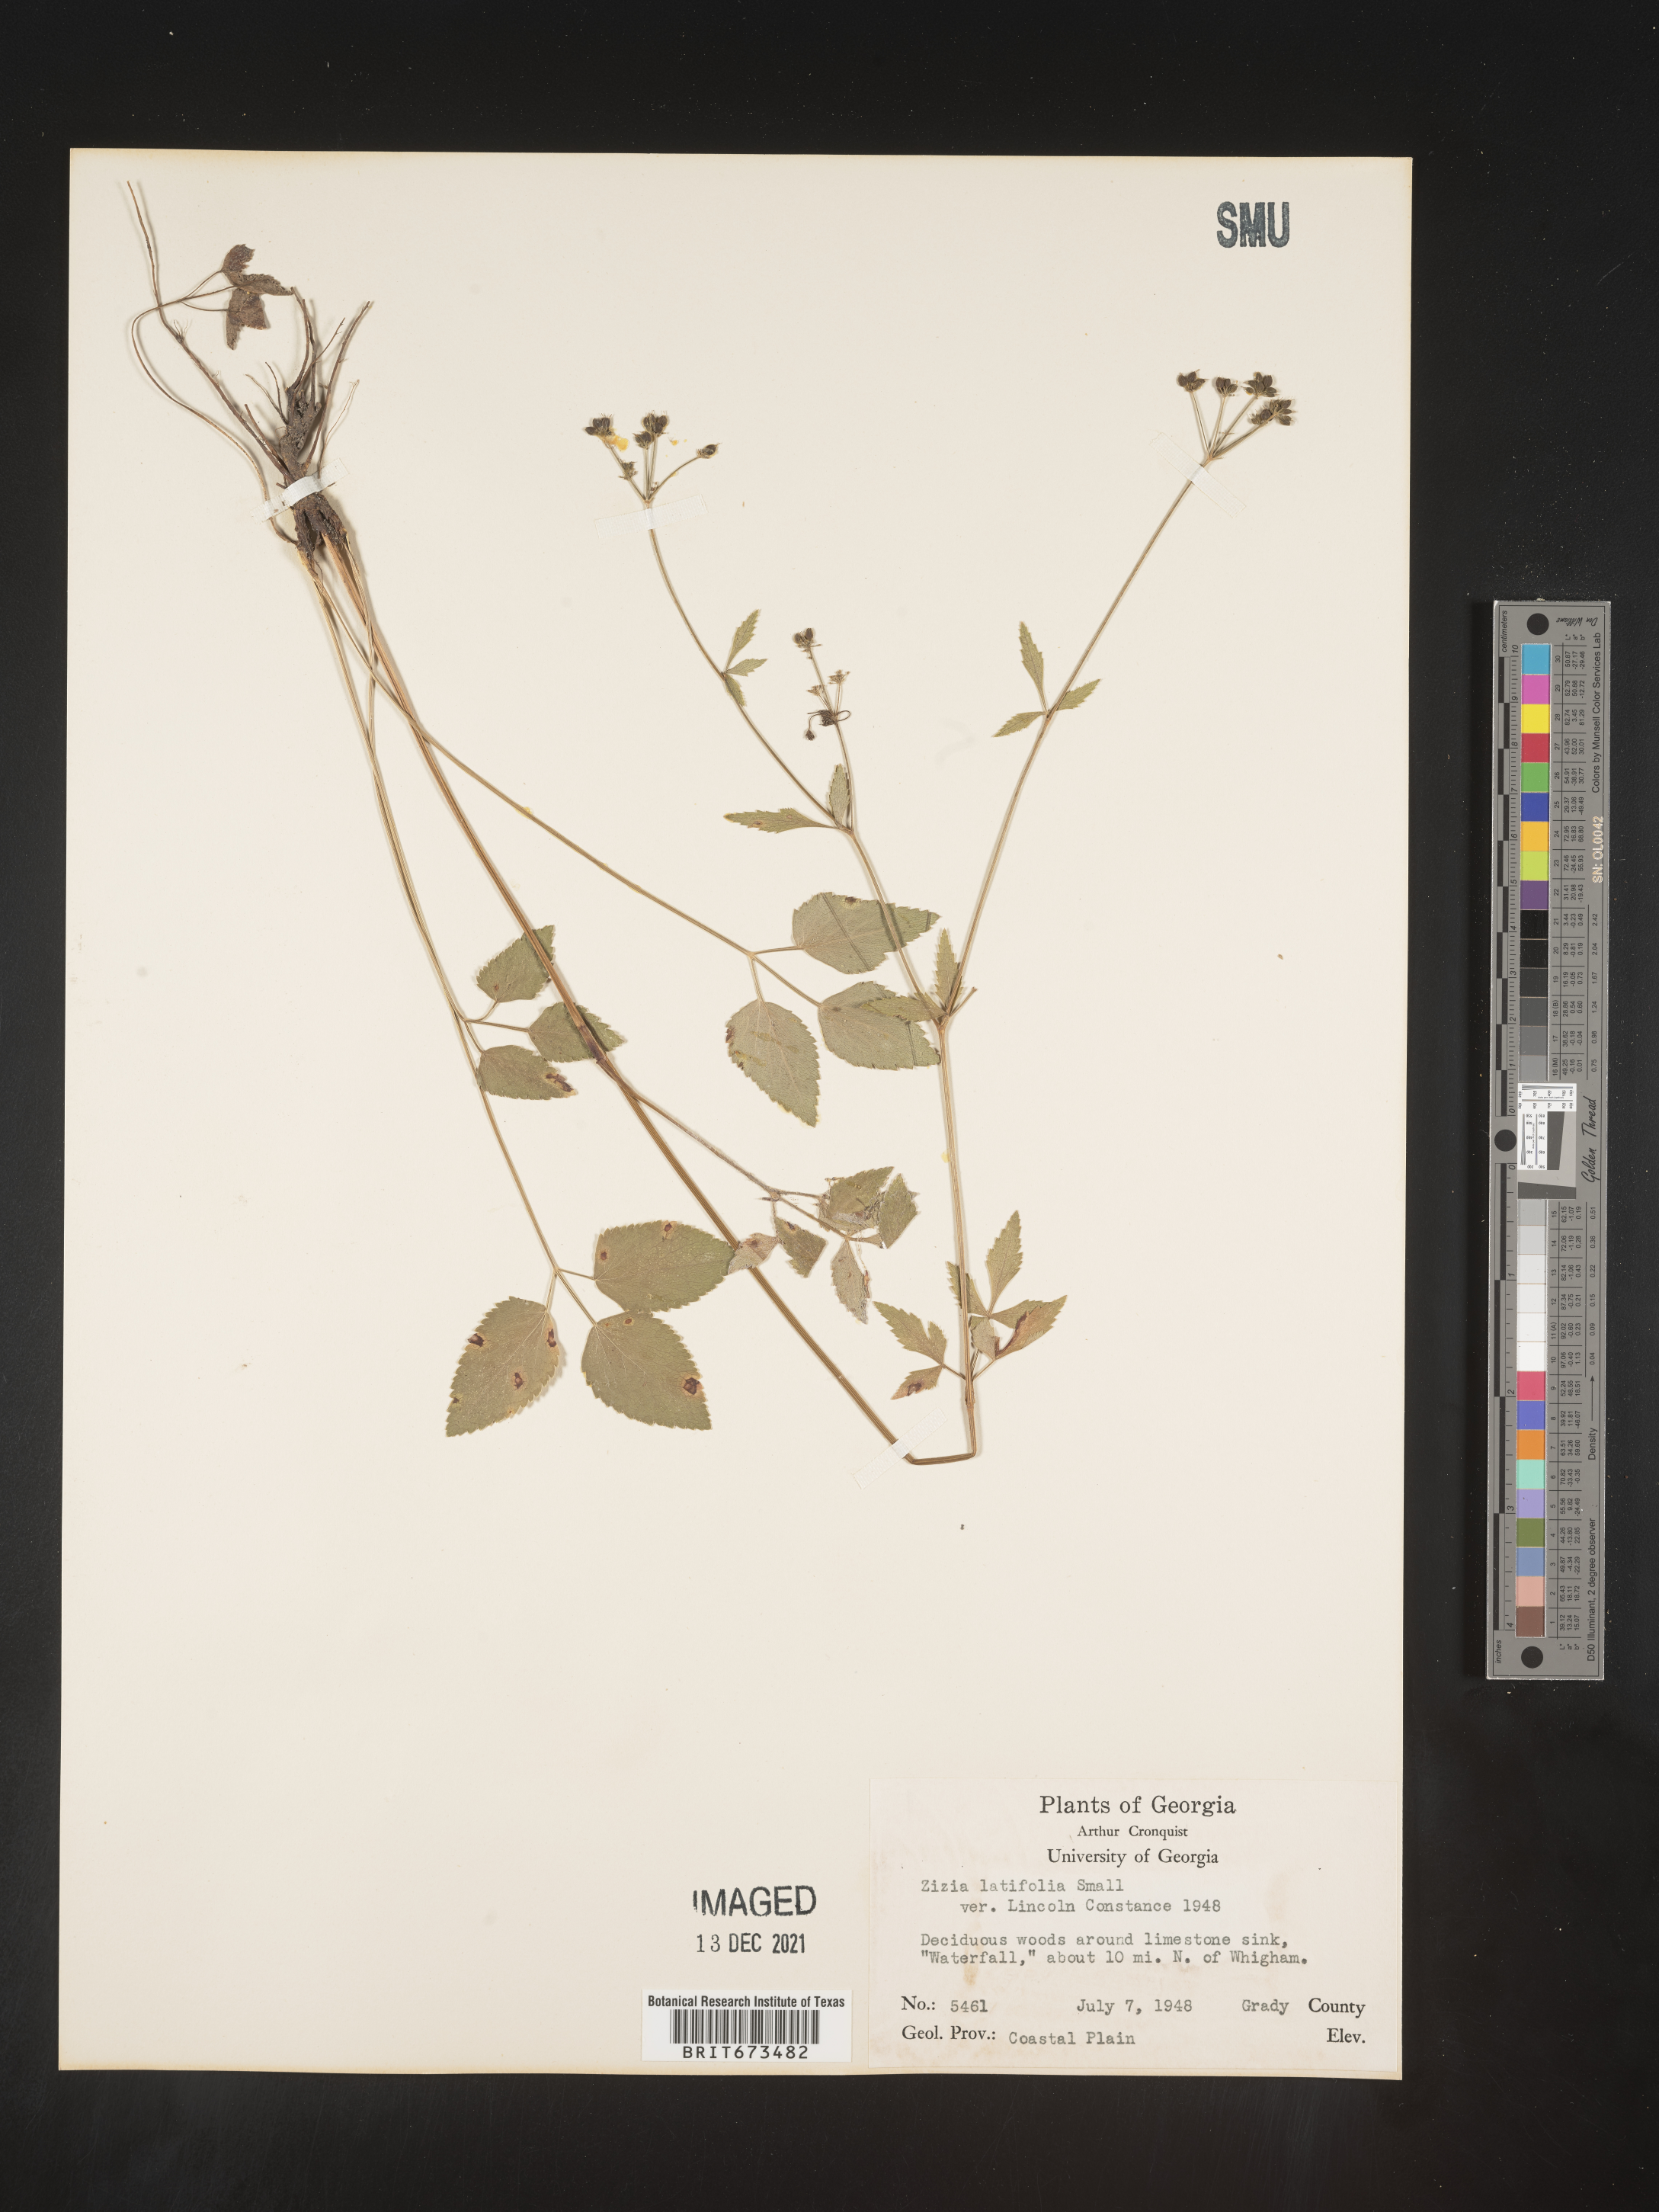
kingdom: Plantae
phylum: Tracheophyta
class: Magnoliopsida
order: Apiales
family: Apiaceae
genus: Zizia
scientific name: Zizia trifoliata
